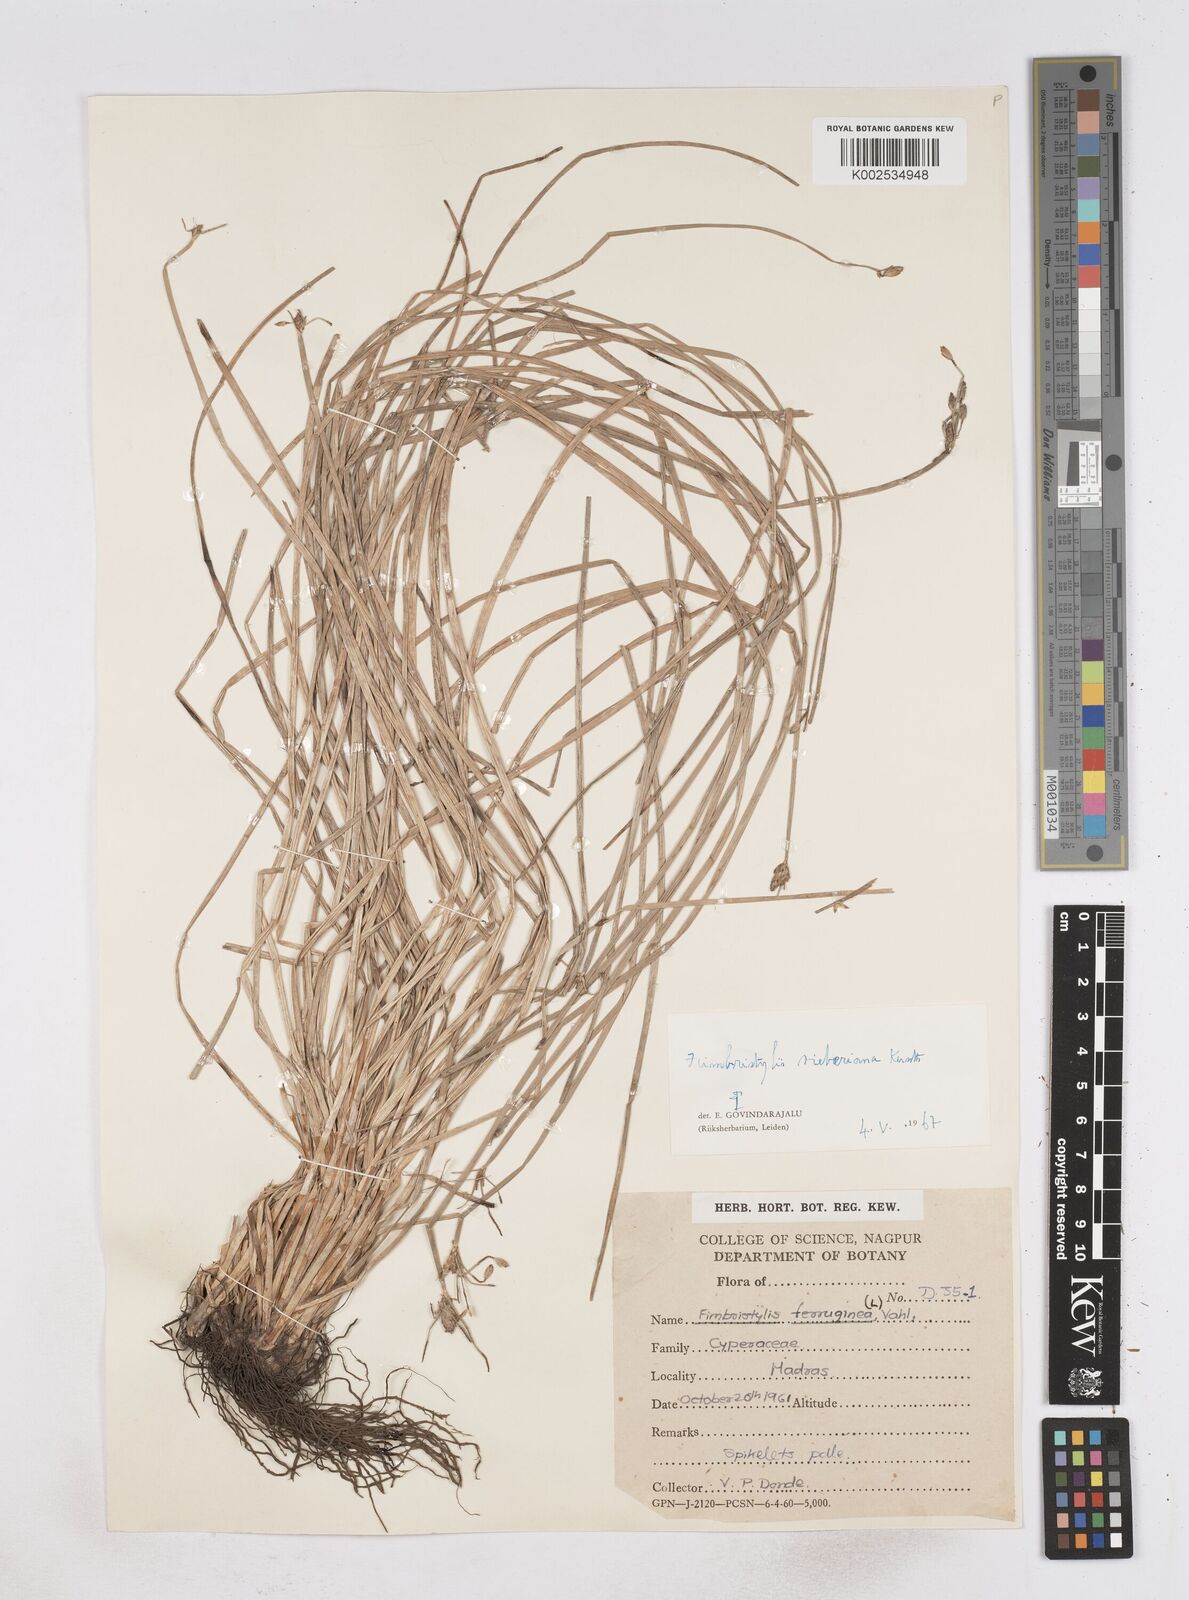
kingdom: Plantae
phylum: Tracheophyta
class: Liliopsida
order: Poales
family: Cyperaceae
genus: Fimbristylis
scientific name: Fimbristylis ferruginea
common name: West indian fimbry
